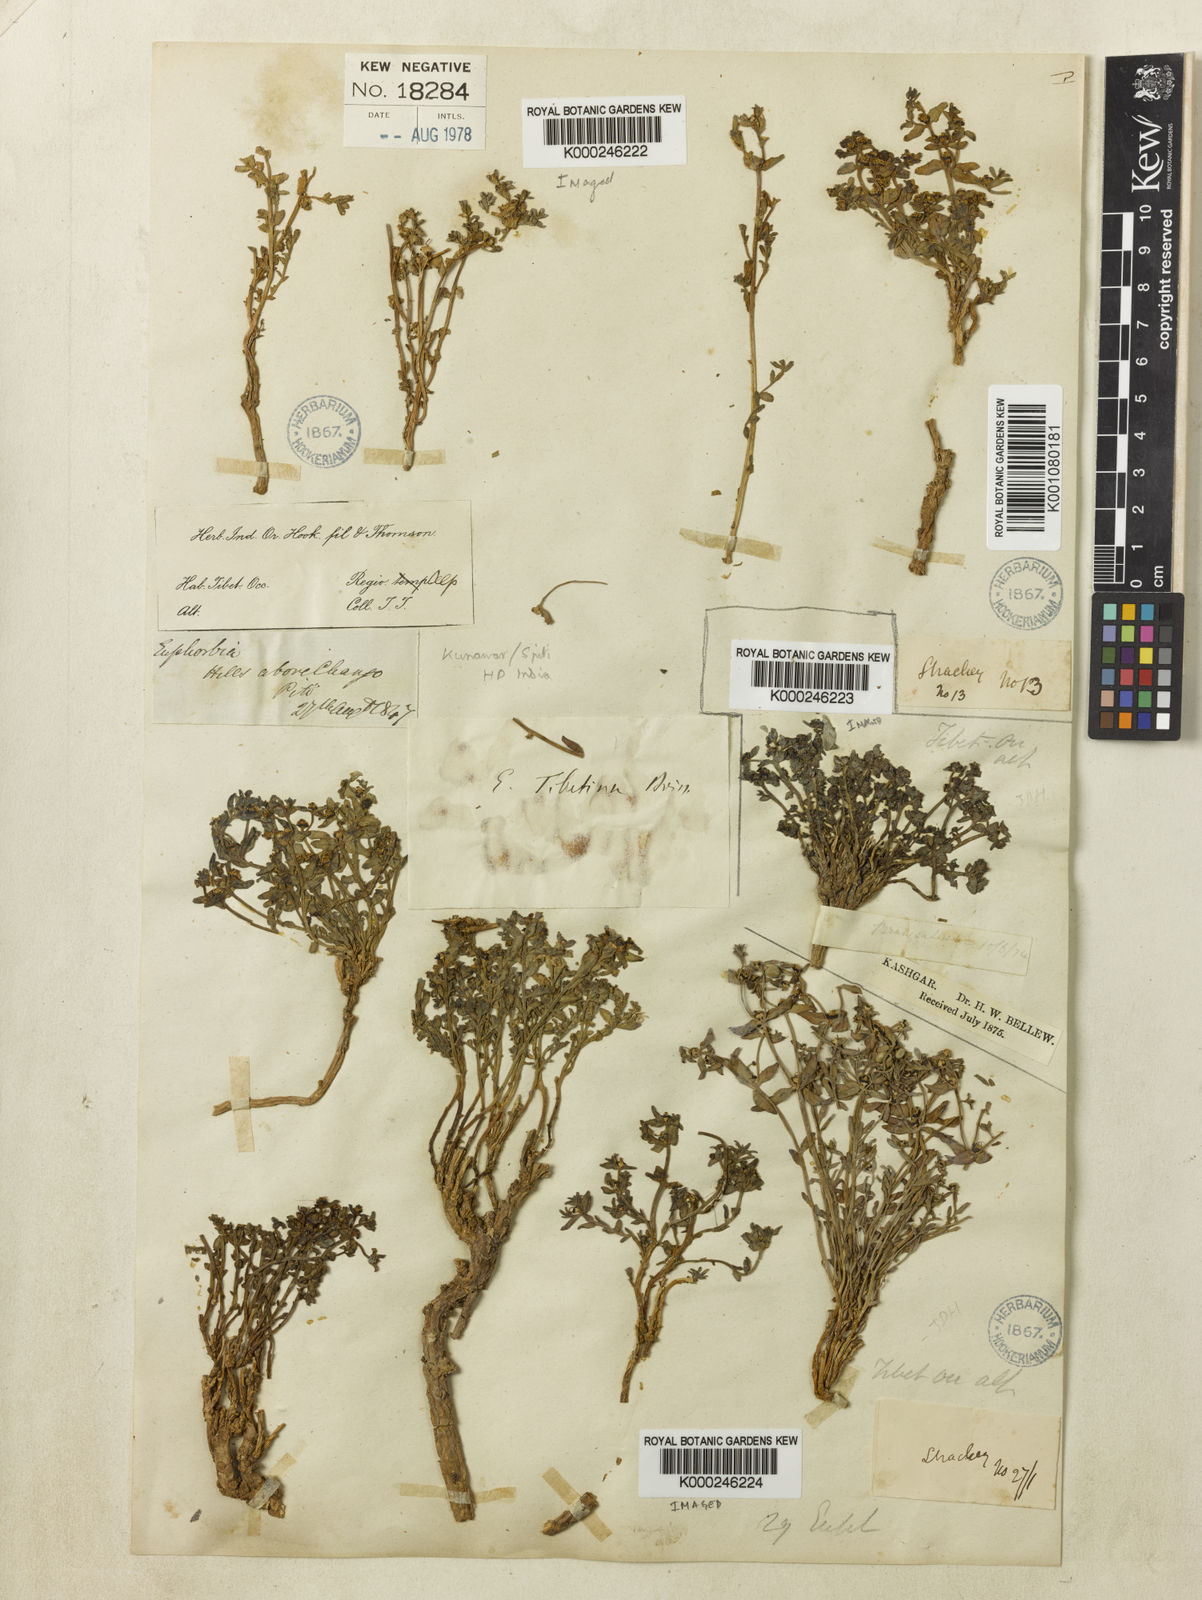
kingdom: Plantae
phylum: Tracheophyta
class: Magnoliopsida
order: Malpighiales
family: Euphorbiaceae
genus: Euphorbia
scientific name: Euphorbia tibetica
